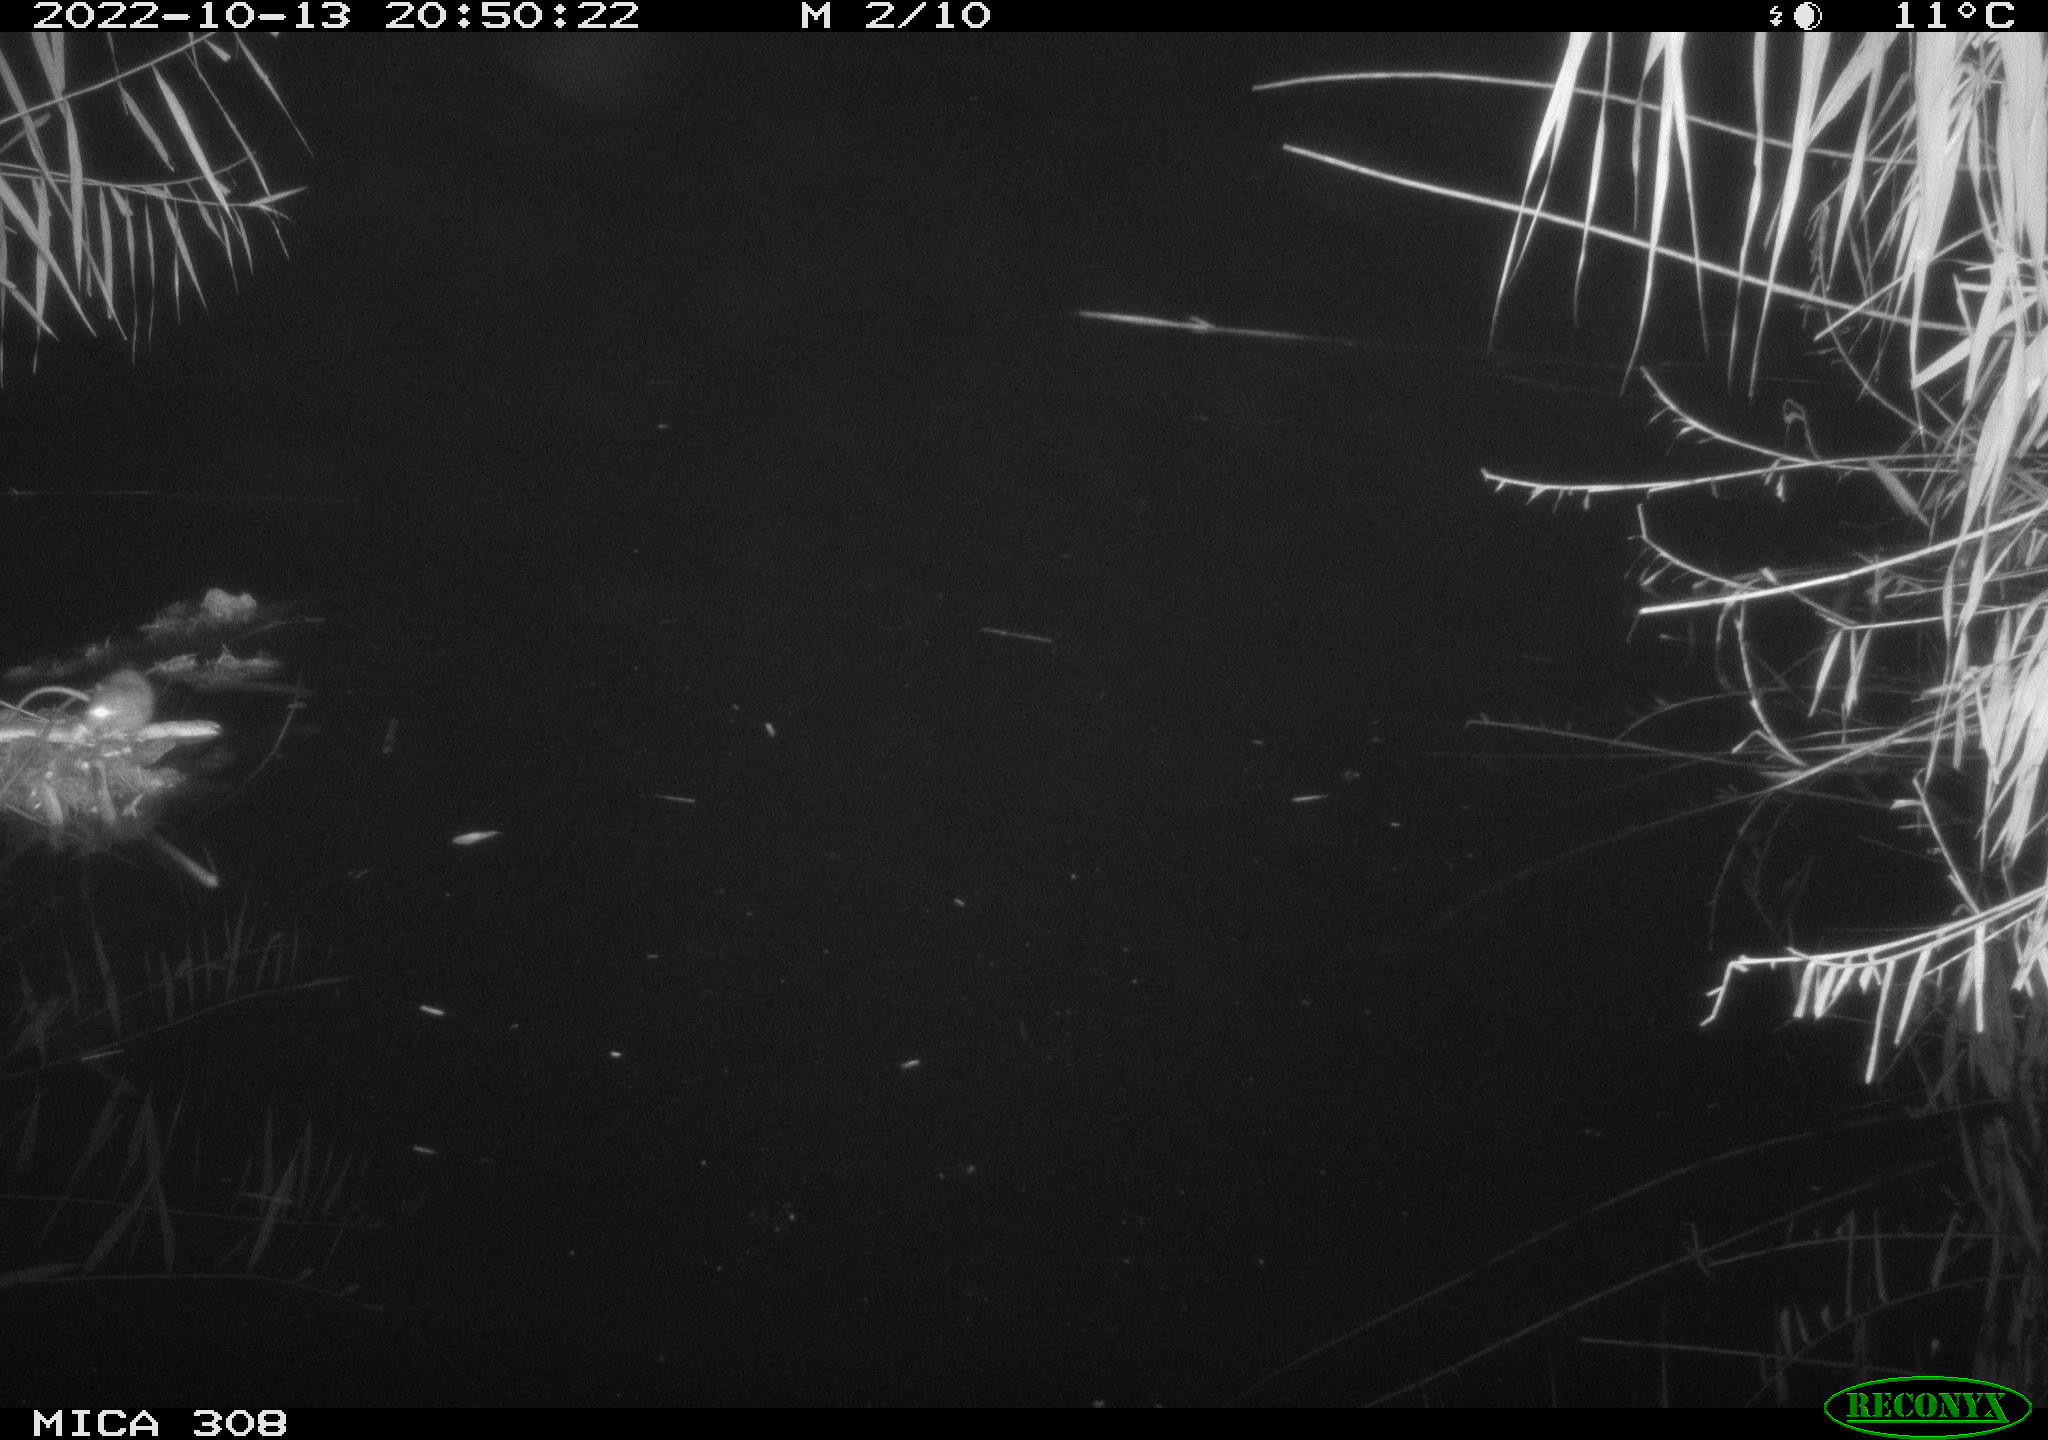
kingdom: Animalia
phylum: Chordata
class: Mammalia
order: Rodentia
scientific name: Rodentia
